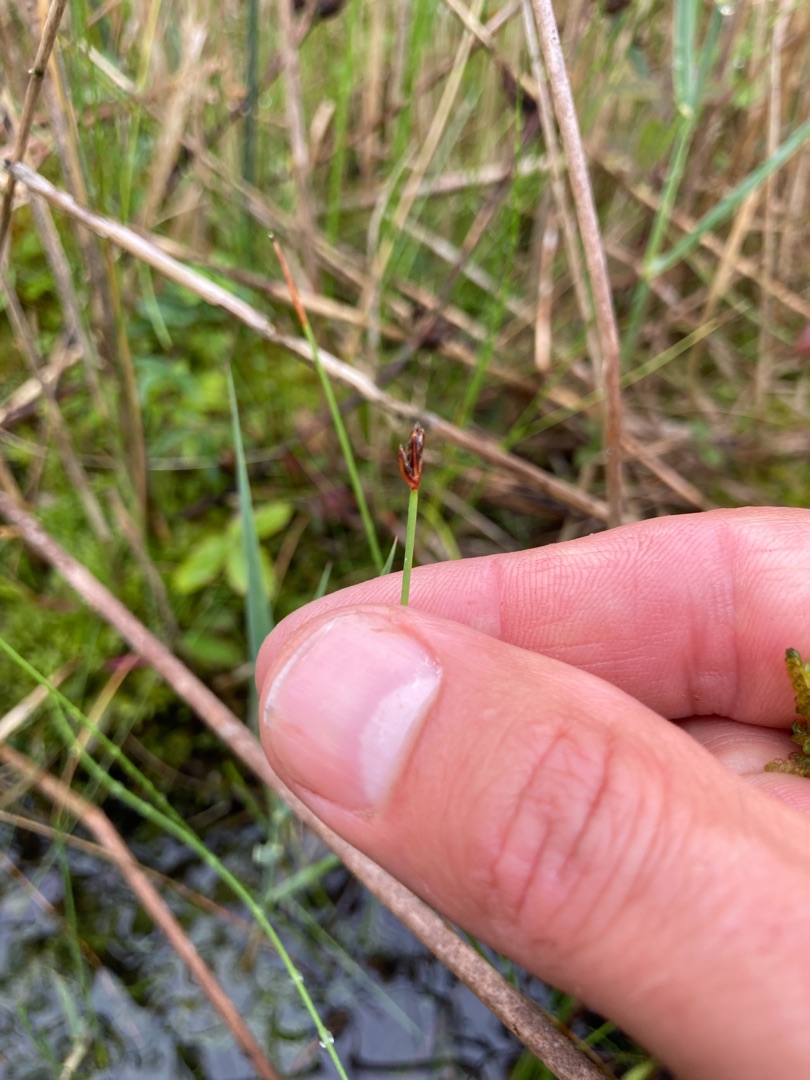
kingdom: Plantae
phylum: Tracheophyta
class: Liliopsida
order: Poales
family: Cyperaceae
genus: Eleocharis
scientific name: Eleocharis quinqueflora
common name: Fåblomstret kogleaks
